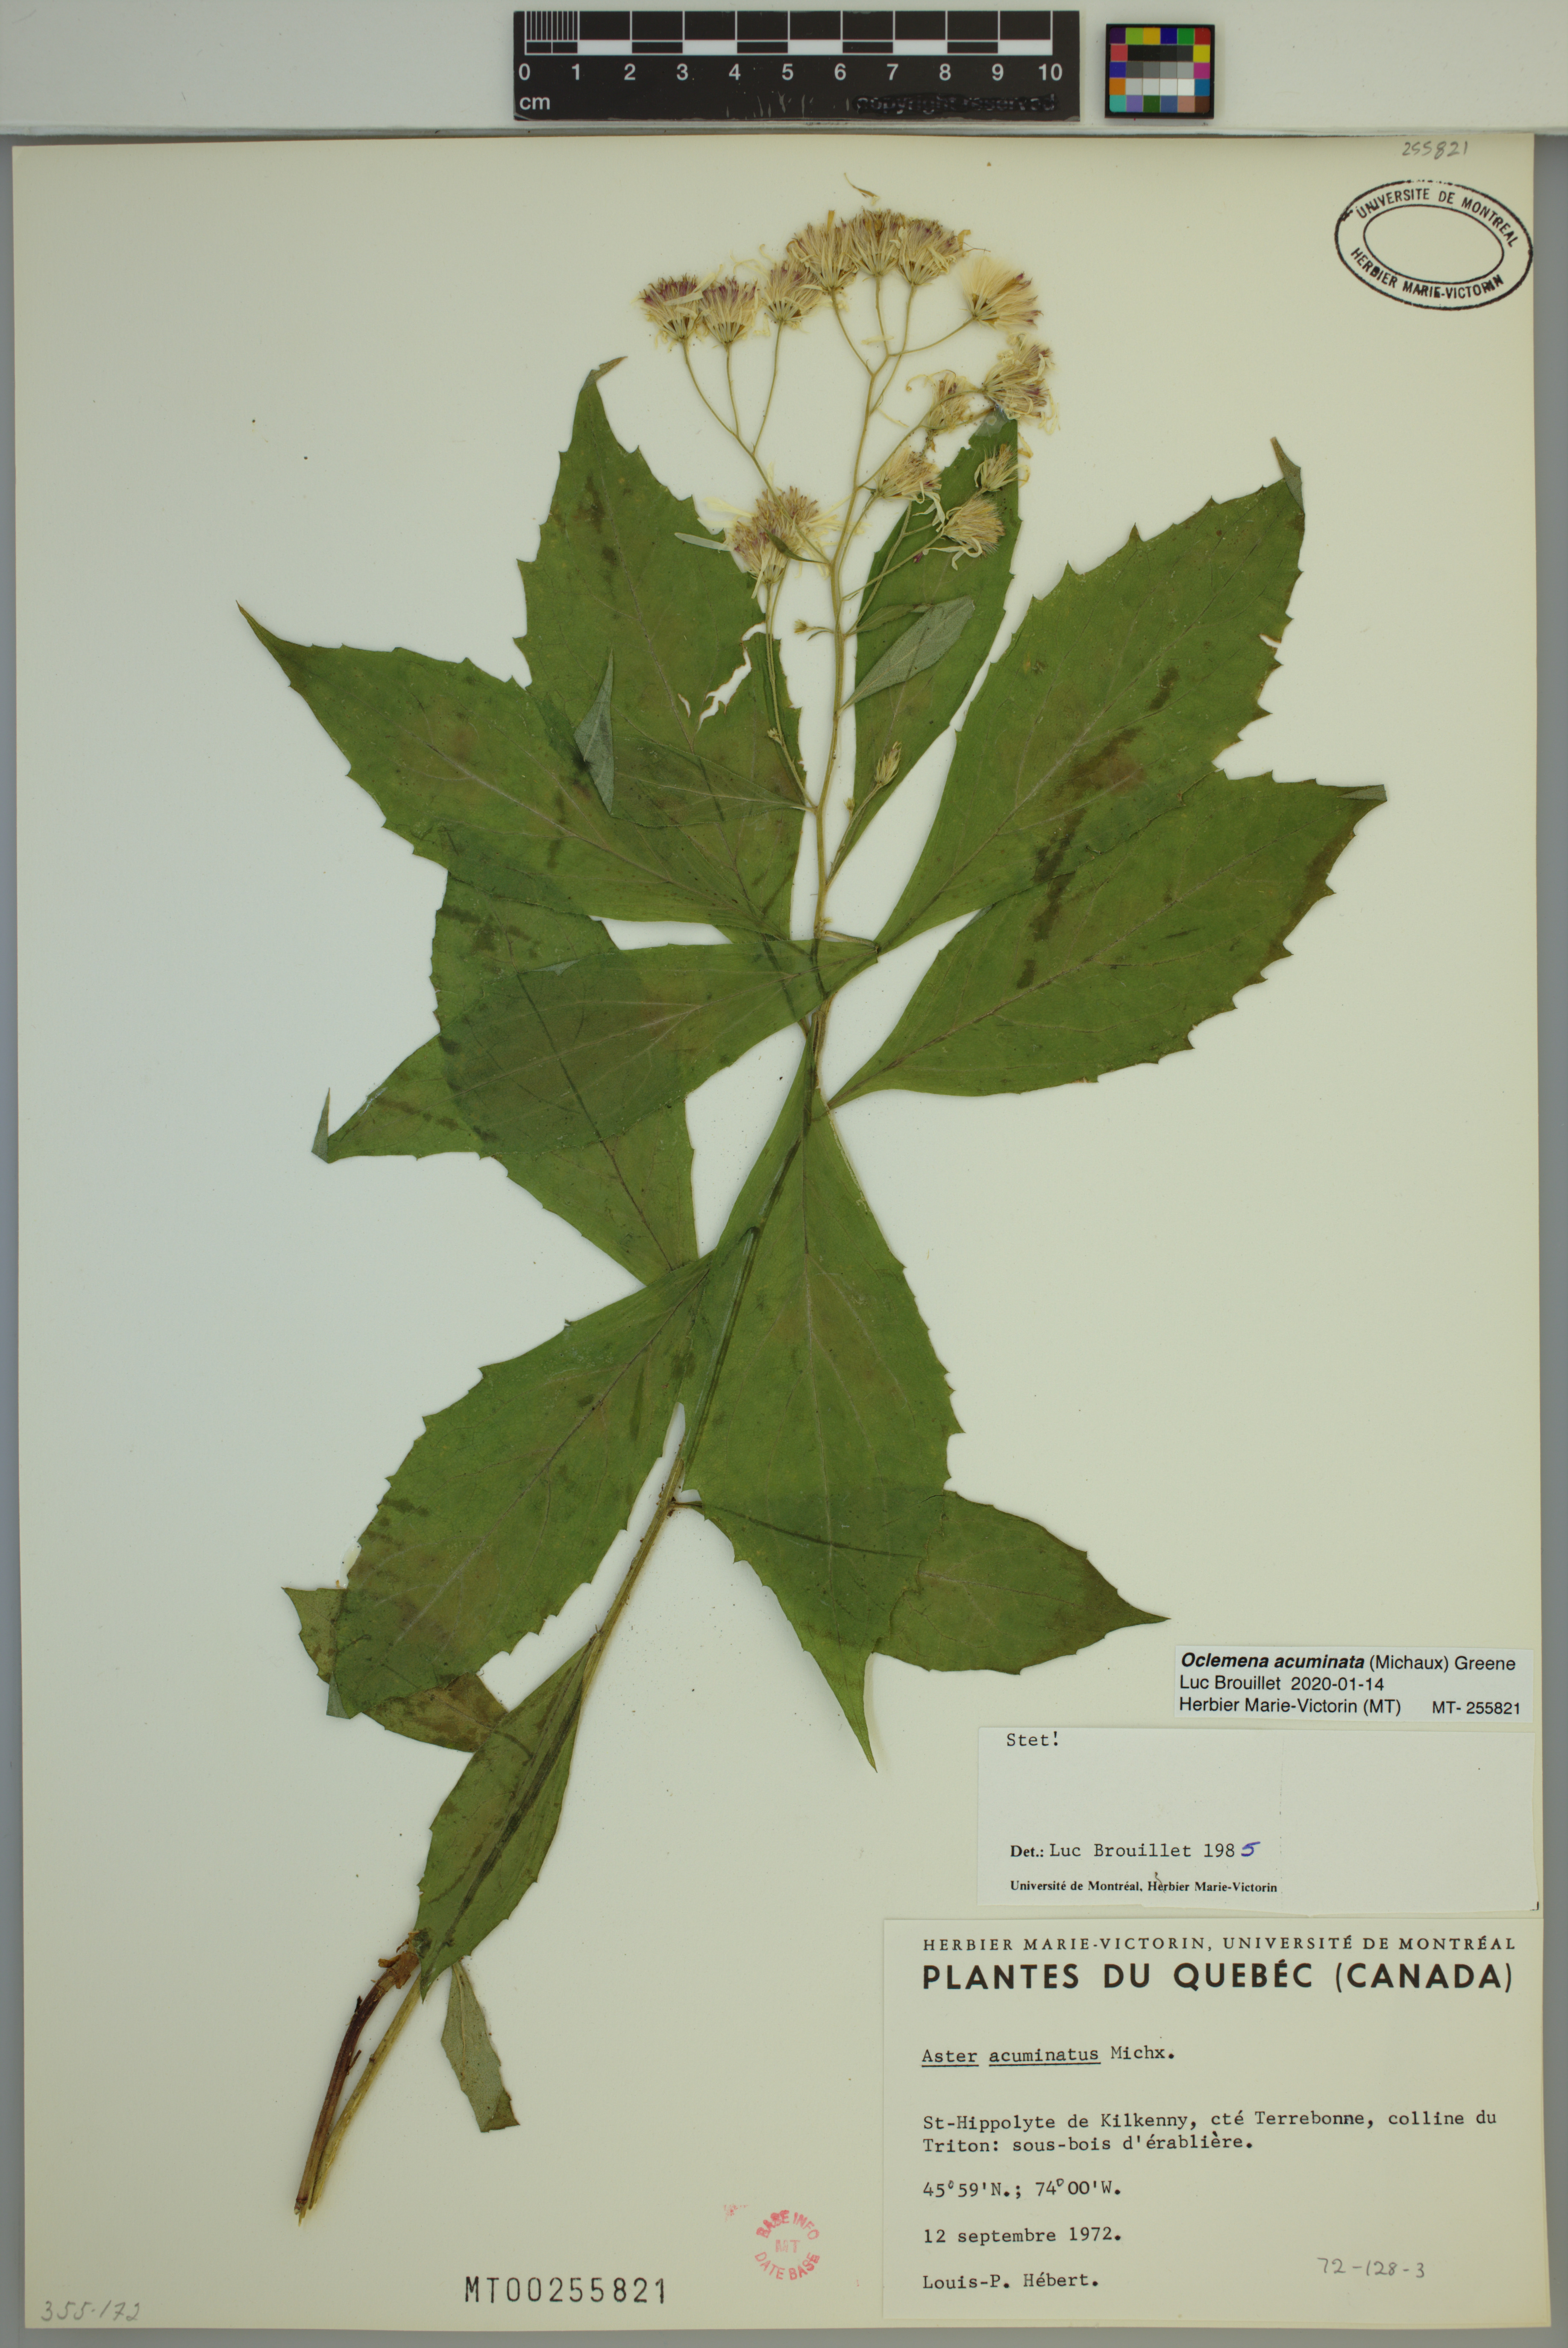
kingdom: Plantae
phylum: Tracheophyta
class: Magnoliopsida
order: Asterales
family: Asteraceae
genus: Oclemena
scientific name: Oclemena acuminata
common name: Mountain aster
